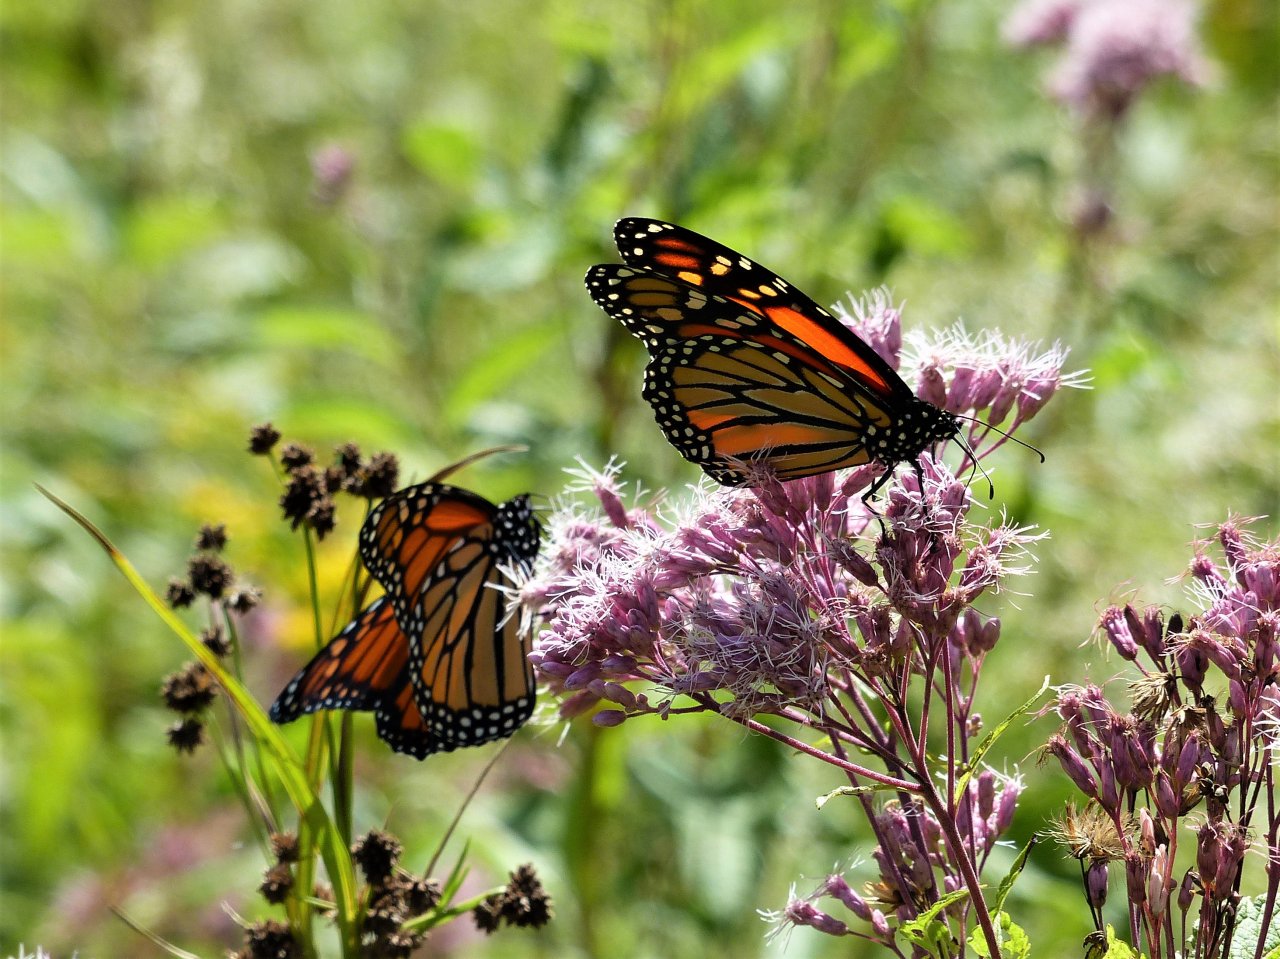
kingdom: Animalia
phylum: Arthropoda
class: Insecta
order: Lepidoptera
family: Nymphalidae
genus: Danaus
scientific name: Danaus plexippus
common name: Monarch
